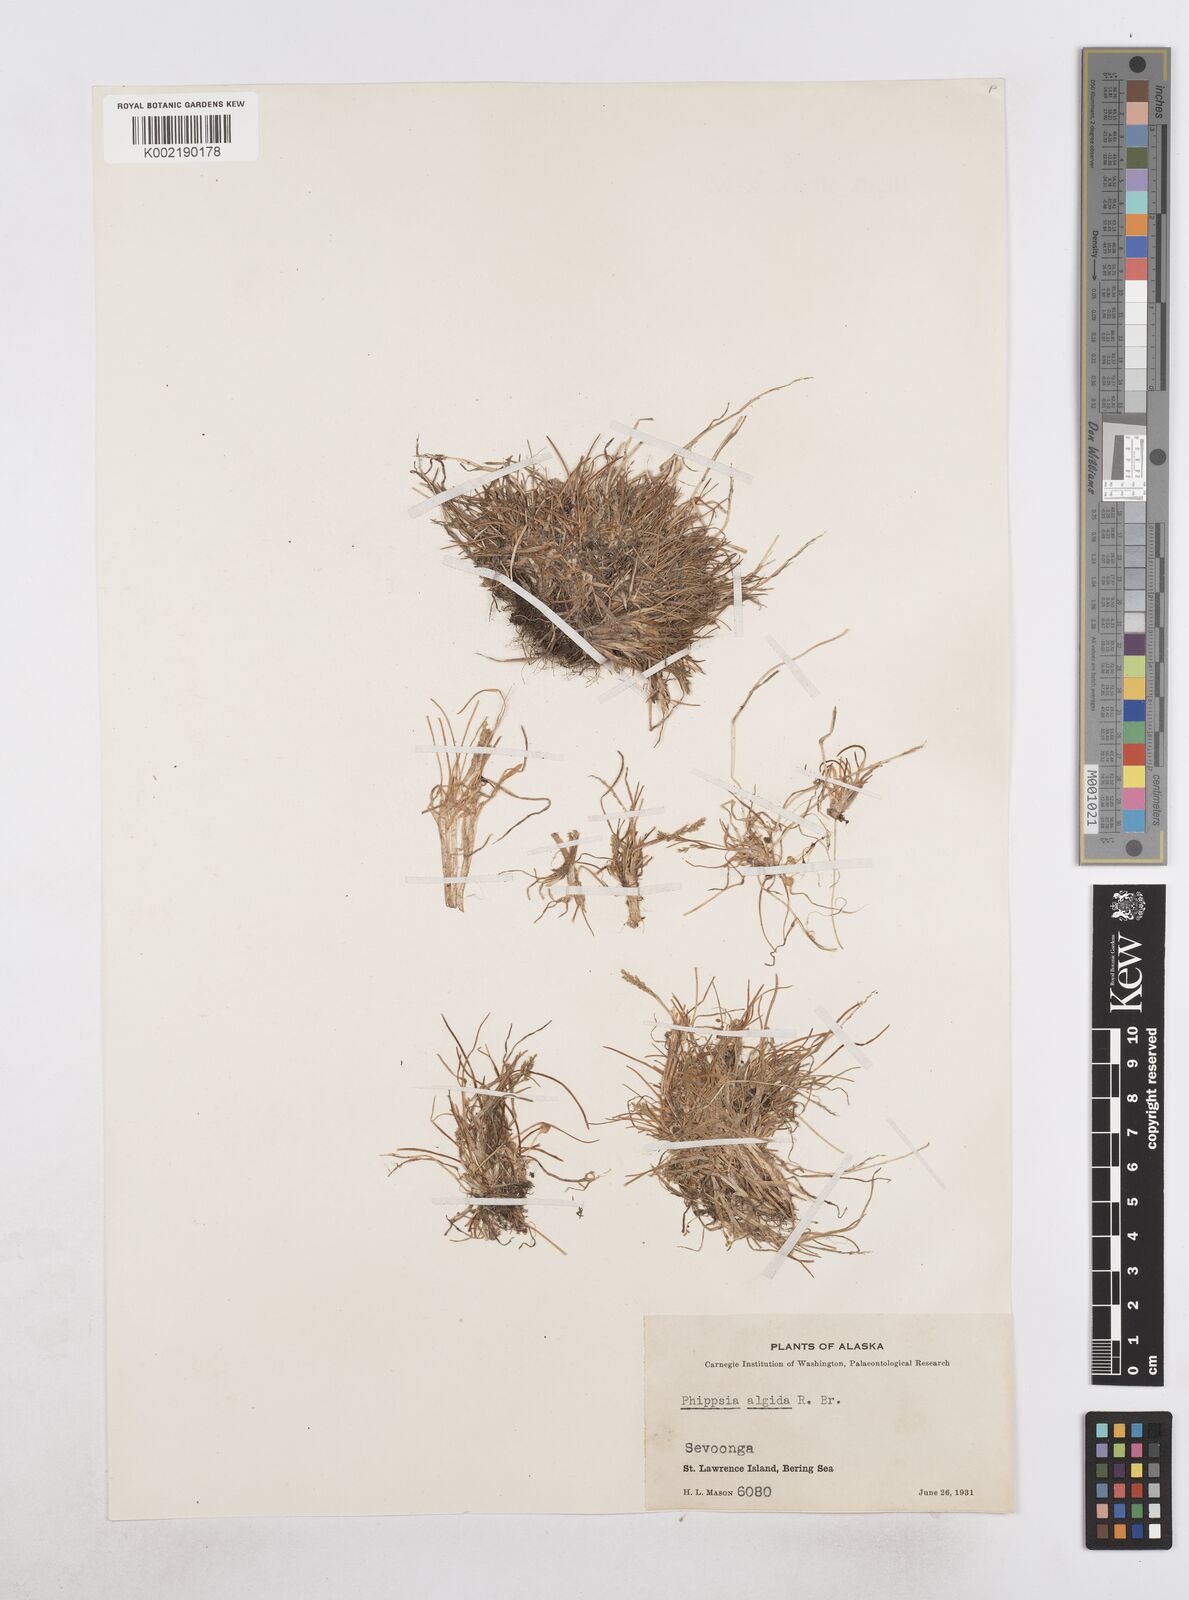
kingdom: Plantae
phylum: Tracheophyta
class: Liliopsida
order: Poales
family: Poaceae
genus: Phippsia
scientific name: Phippsia algida
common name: Ice grass
